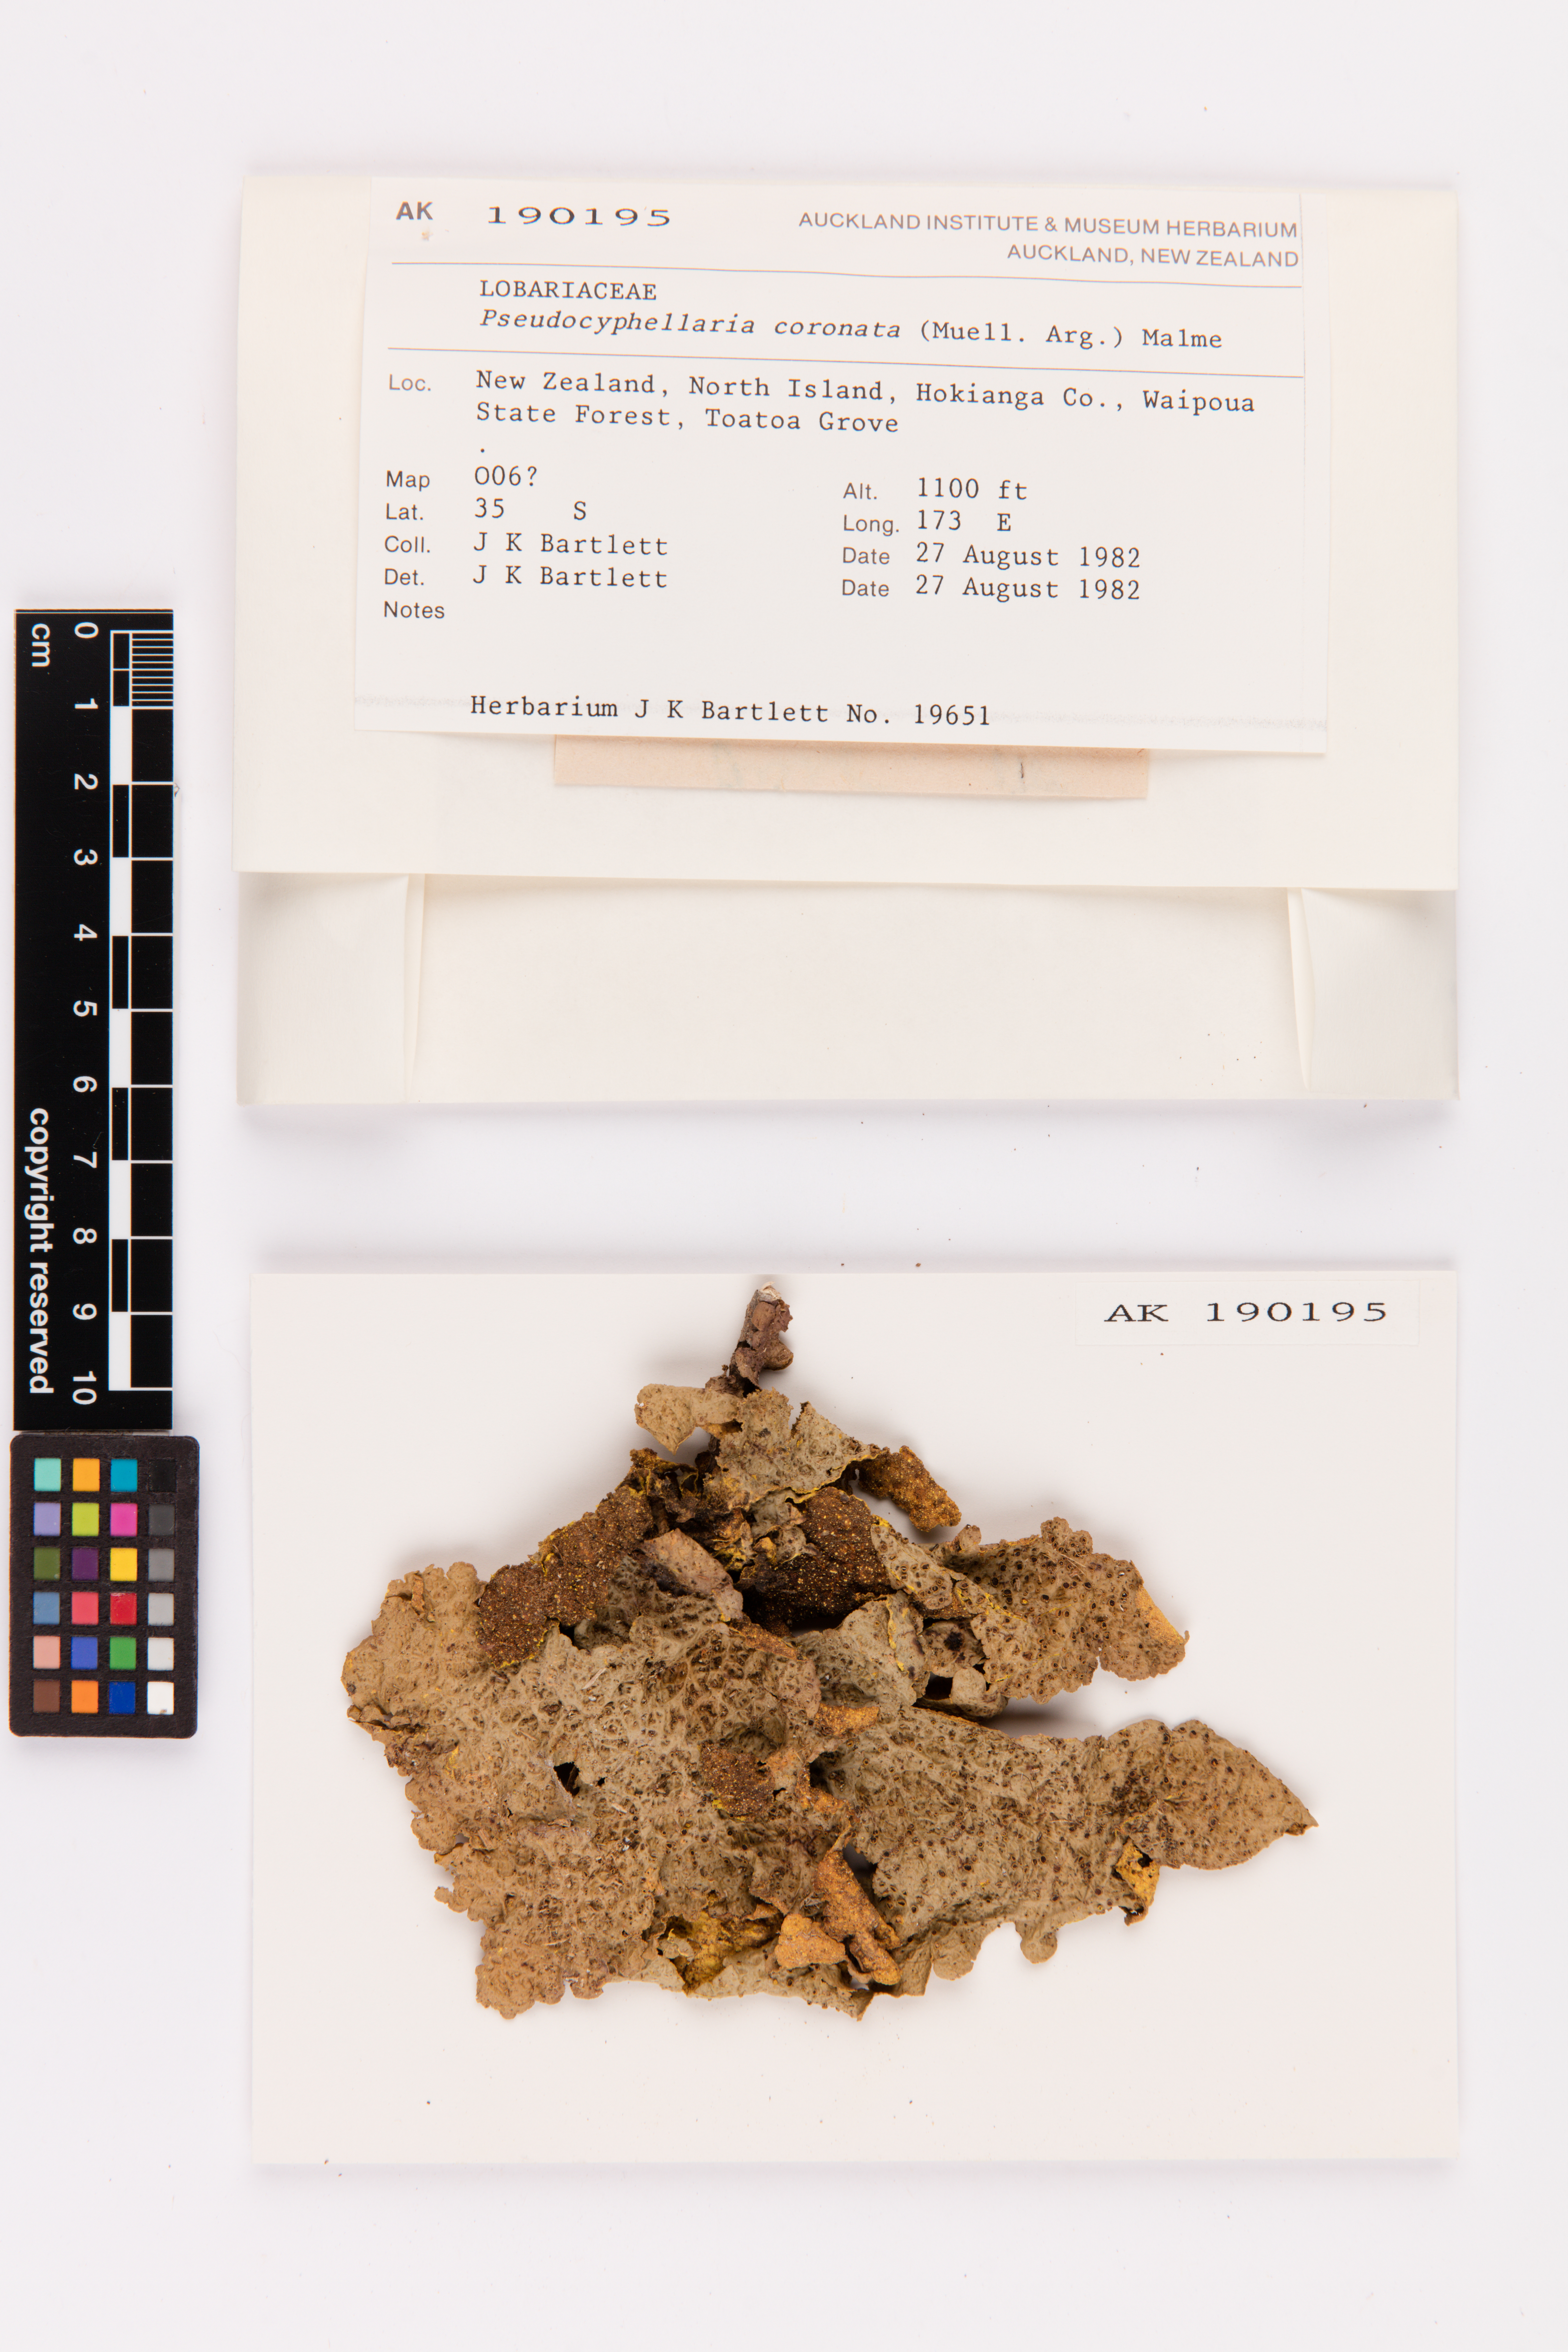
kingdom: Fungi
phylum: Ascomycota
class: Lecanoromycetes
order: Peltigerales
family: Lobariaceae
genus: Yarrumia
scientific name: Yarrumia coronata
